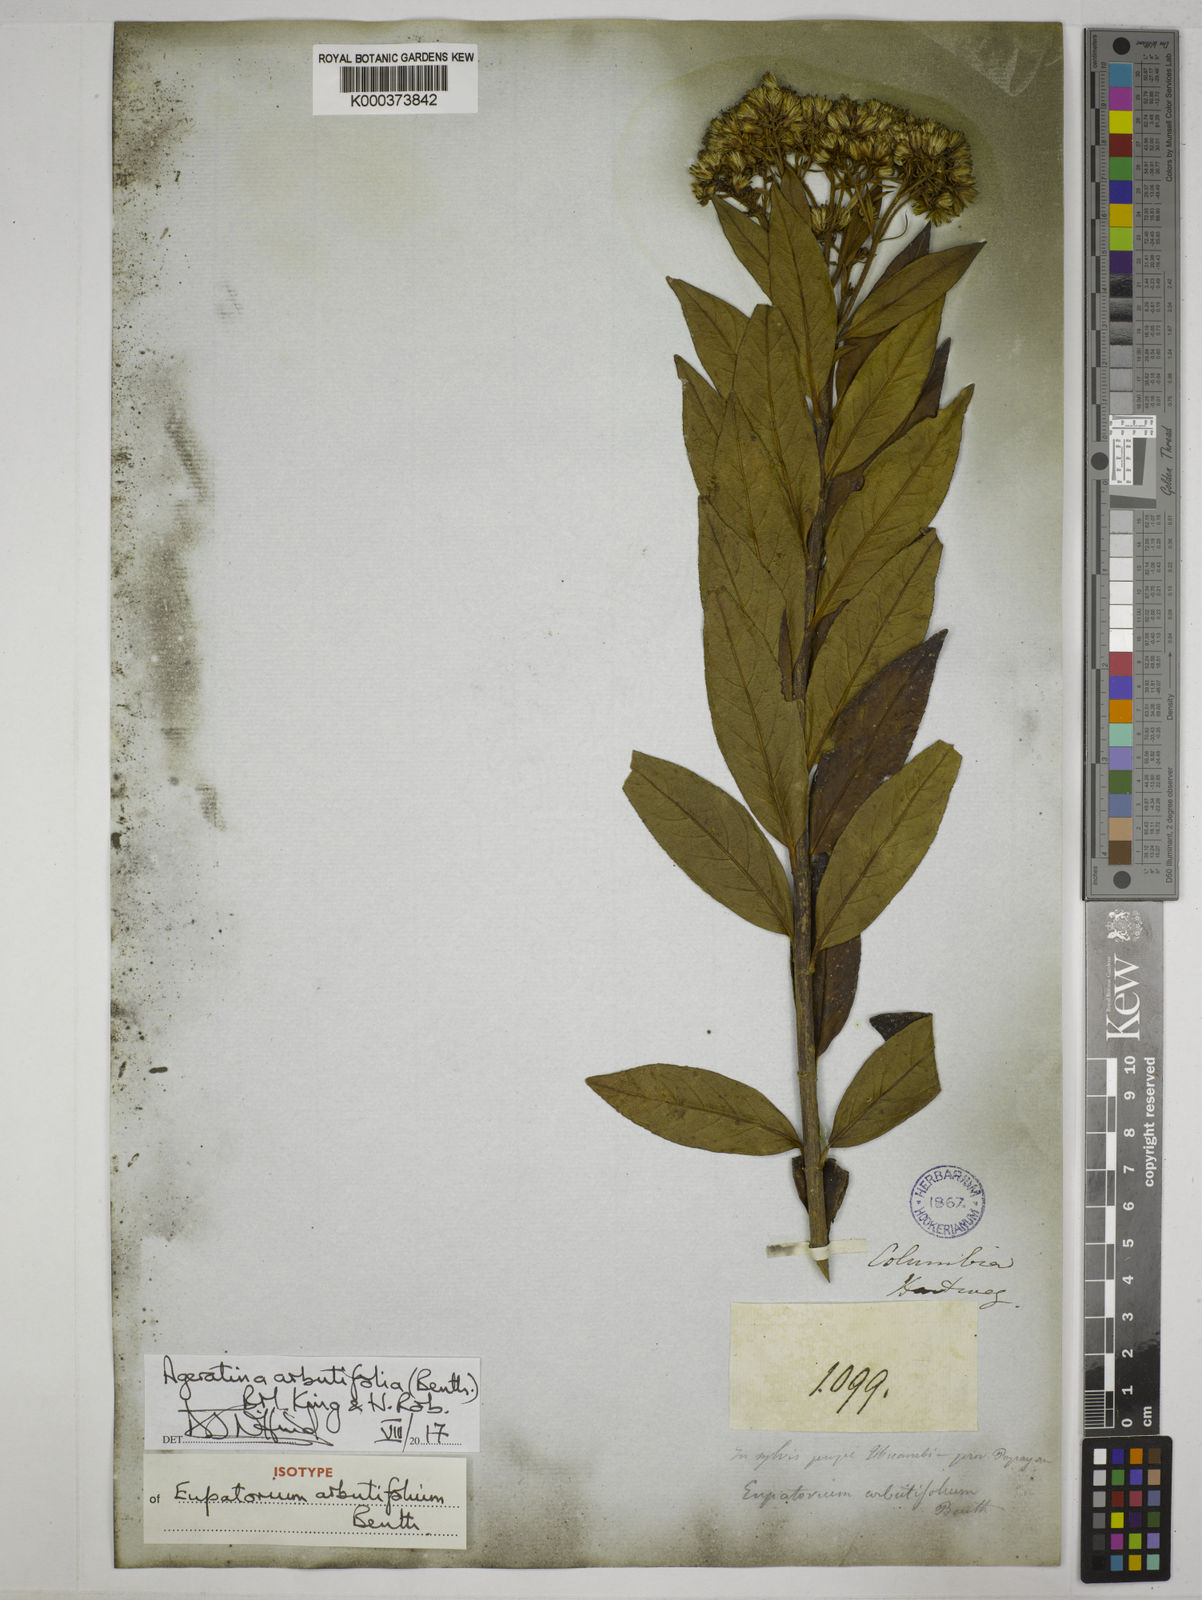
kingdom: Plantae
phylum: Tracheophyta
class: Magnoliopsida
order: Asterales
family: Asteraceae
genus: Ageratina
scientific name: Ageratina arbutifolia
